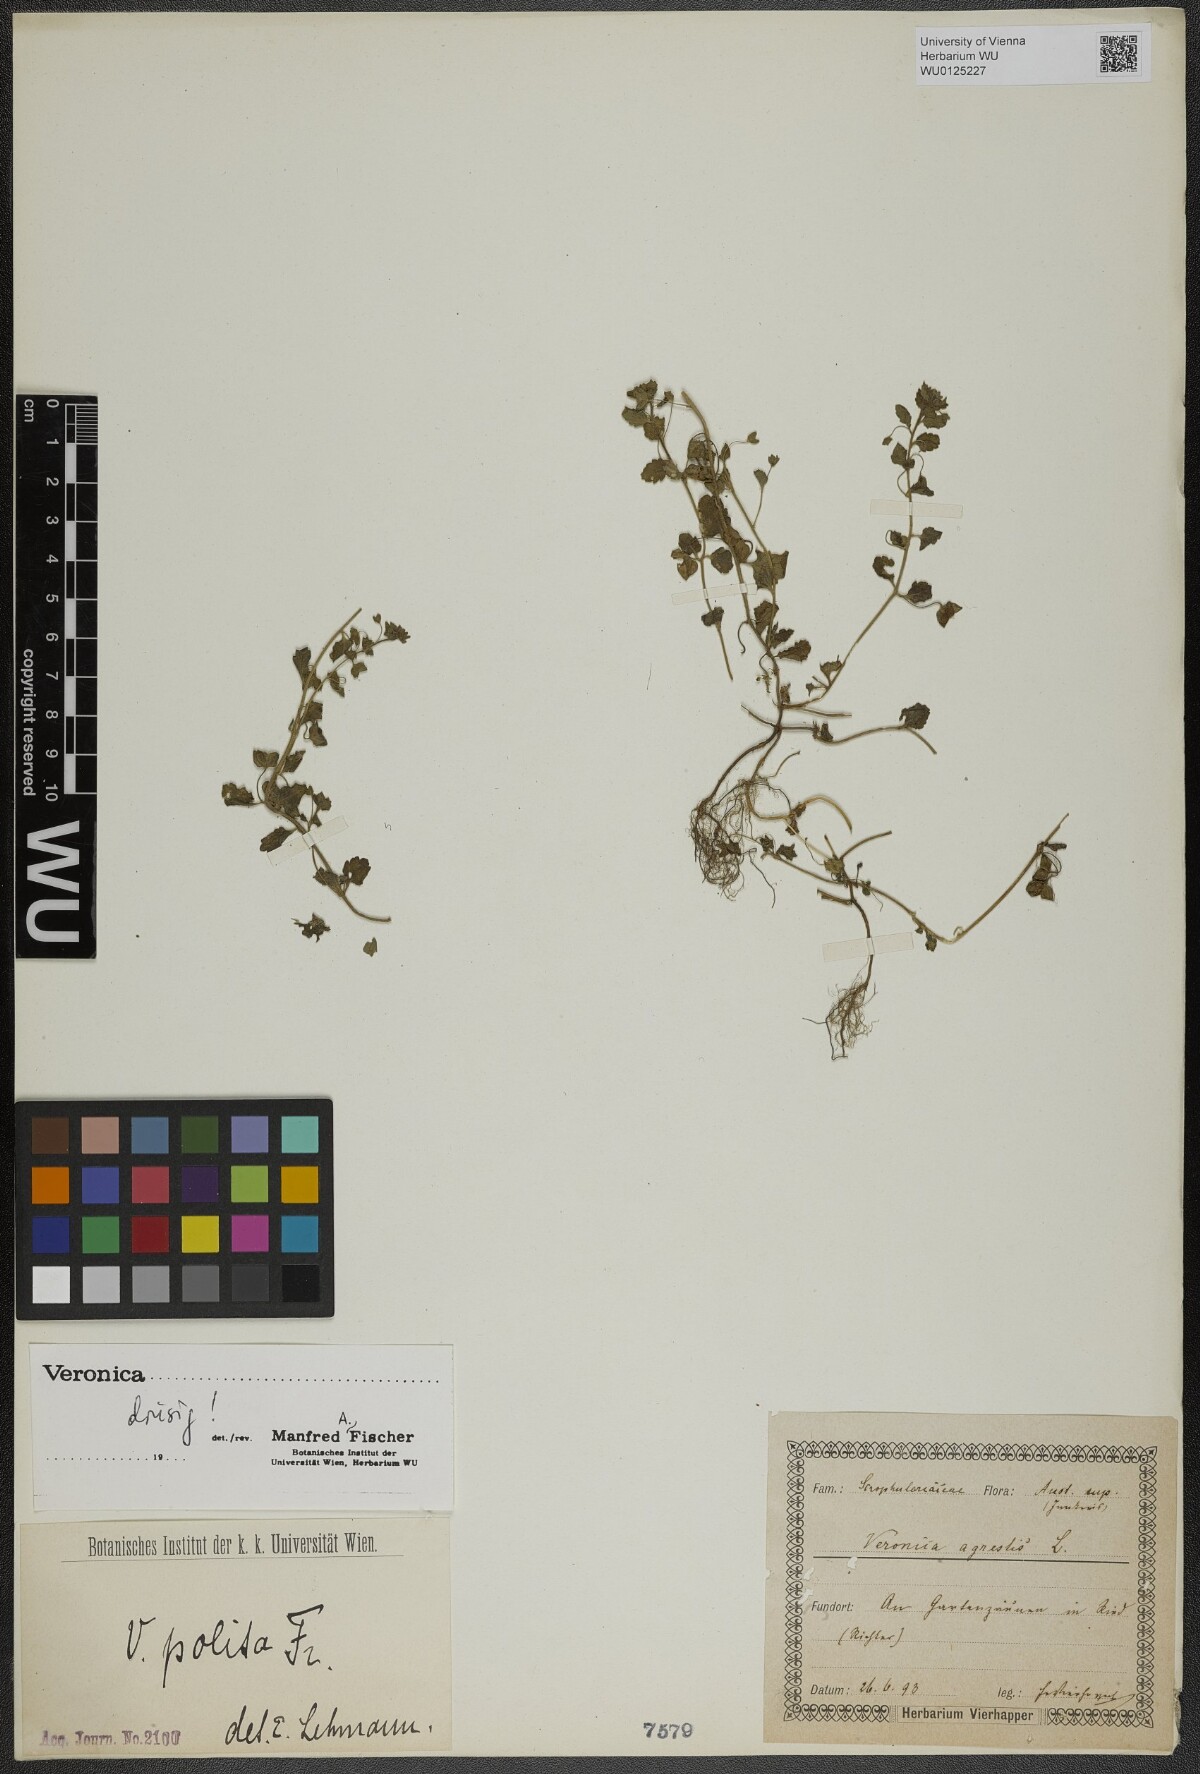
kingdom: Plantae
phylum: Tracheophyta
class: Magnoliopsida
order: Lamiales
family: Plantaginaceae
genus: Veronica
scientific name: Veronica polita
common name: Grey field-speedwell
